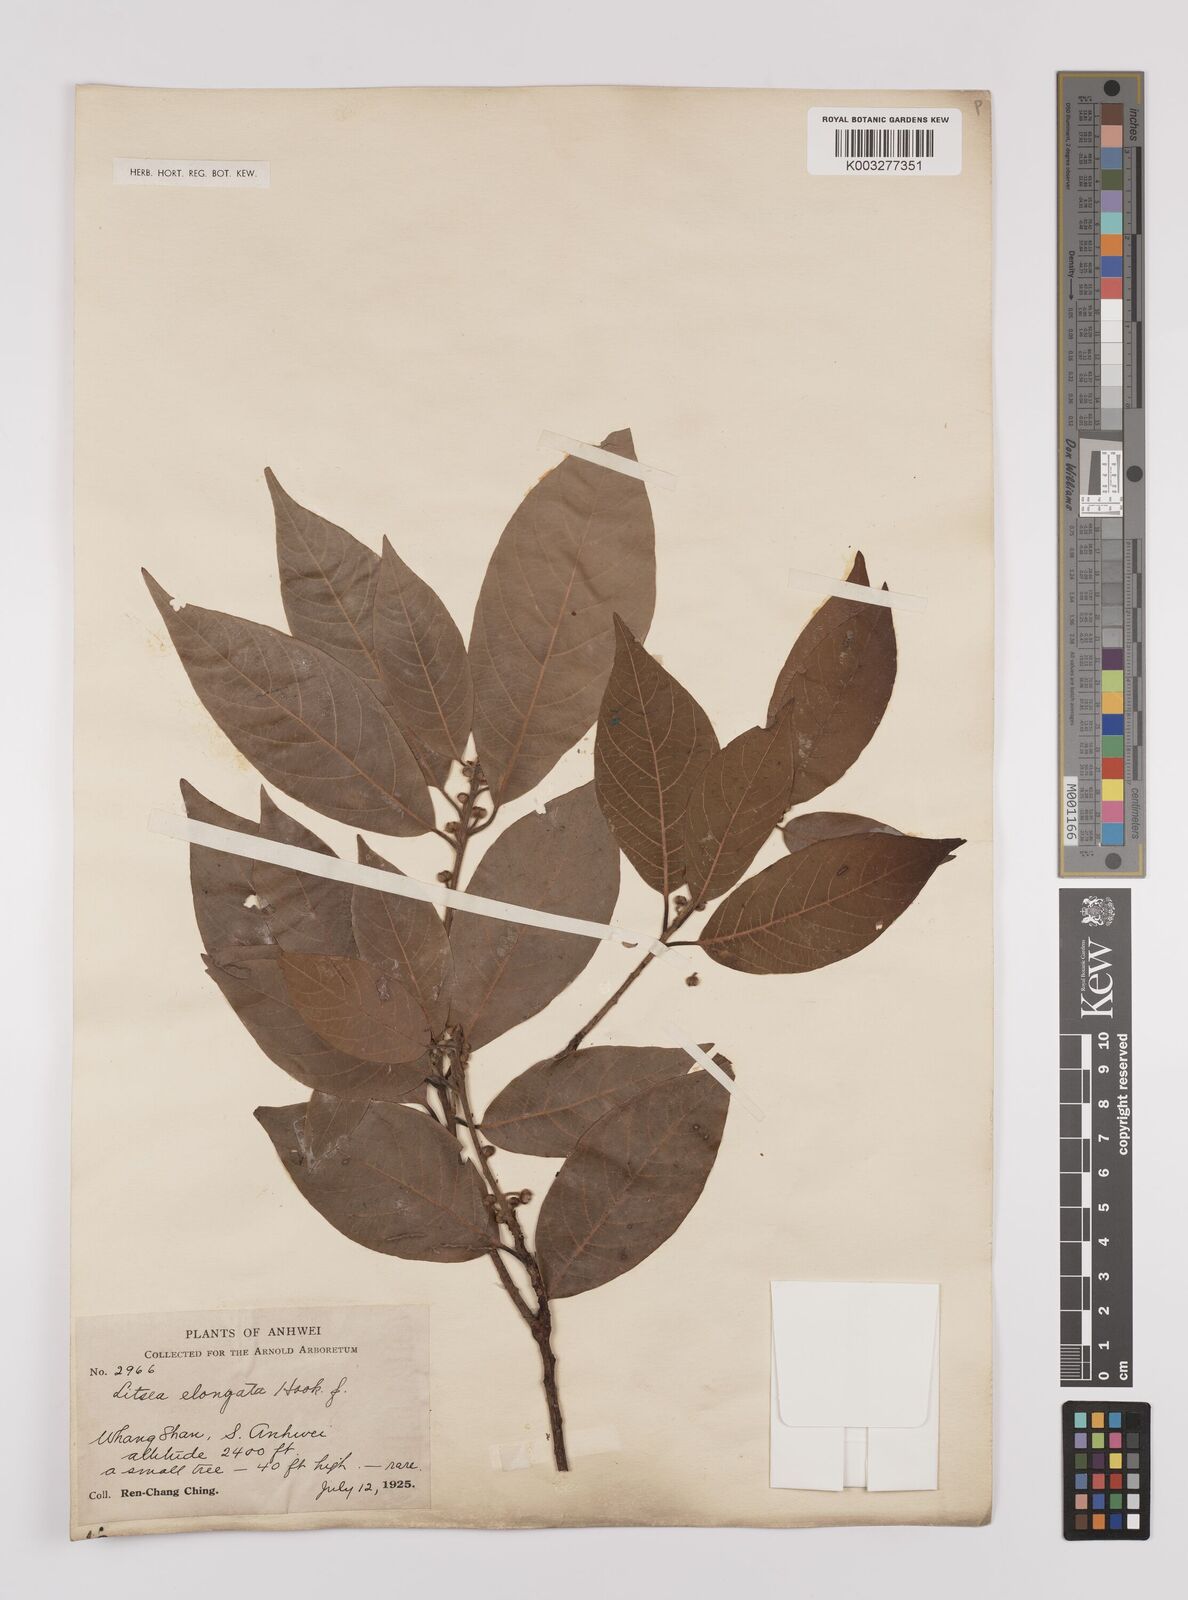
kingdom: Plantae
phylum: Tracheophyta
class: Magnoliopsida
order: Laurales
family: Lauraceae
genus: Litsea
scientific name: Litsea elongata
